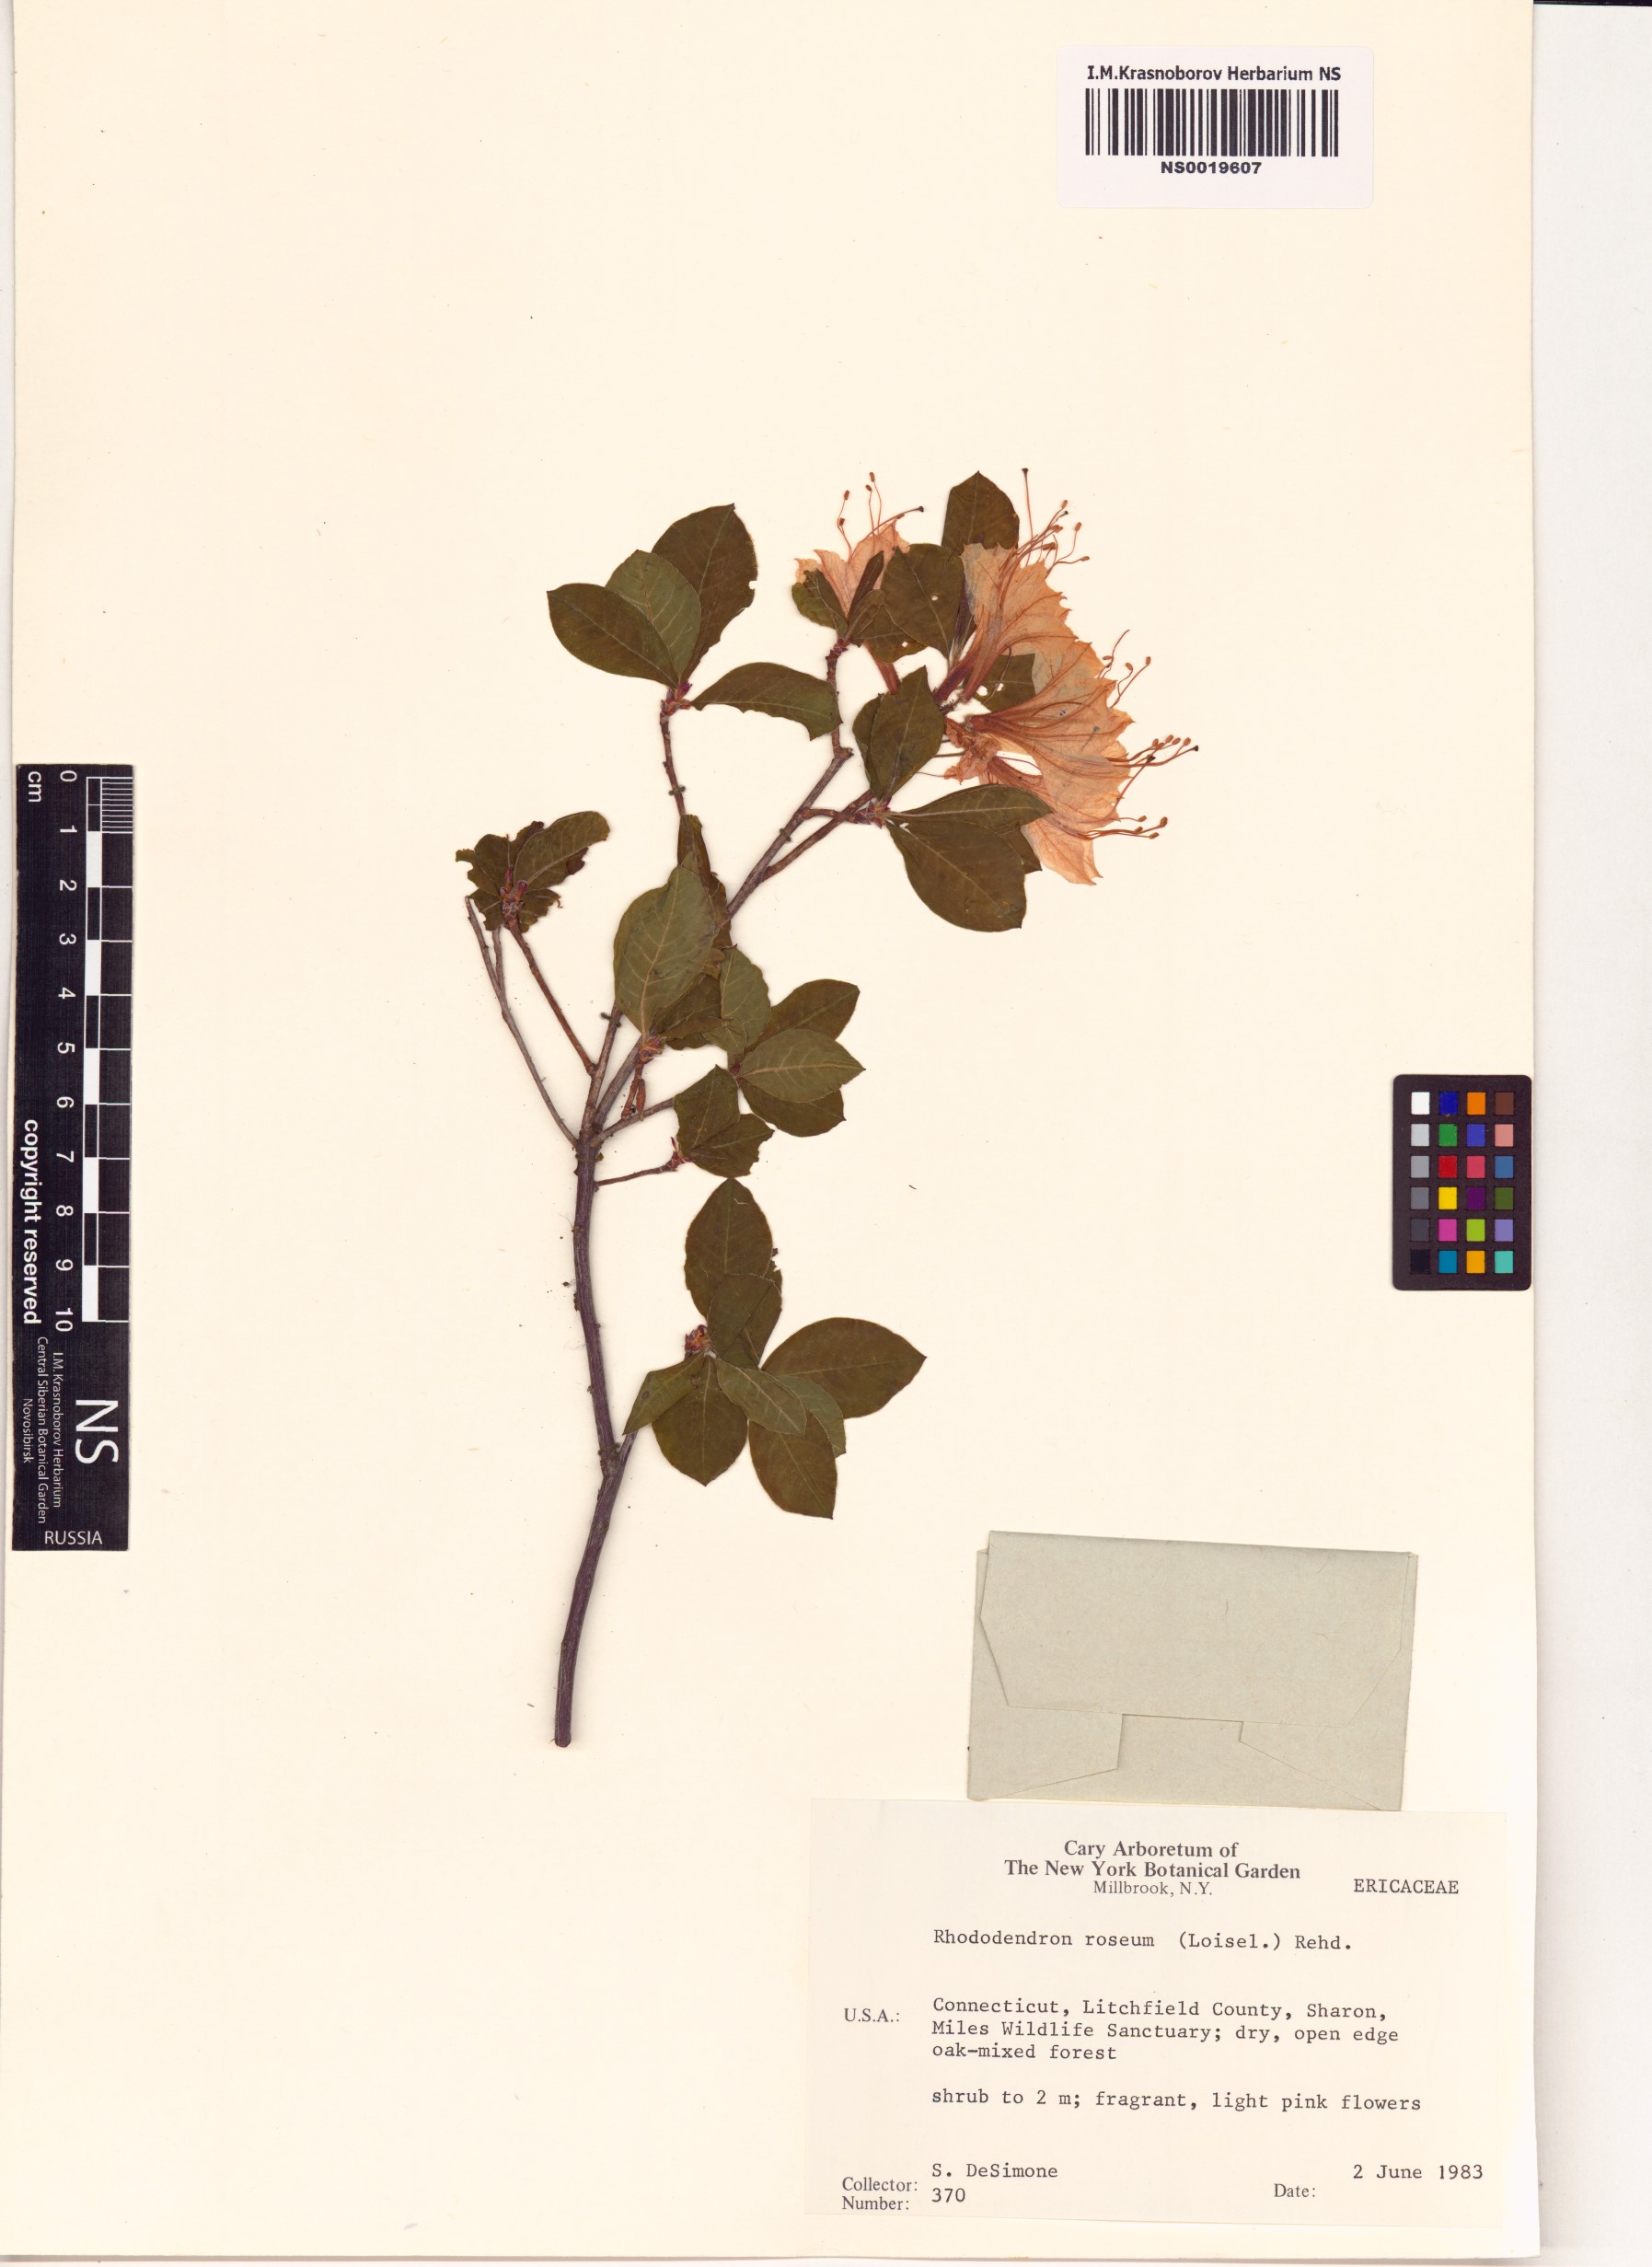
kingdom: Plantae
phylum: Tracheophyta
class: Magnoliopsida
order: Ericales
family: Ericaceae
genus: Rhododendron
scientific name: Rhododendron roseum
